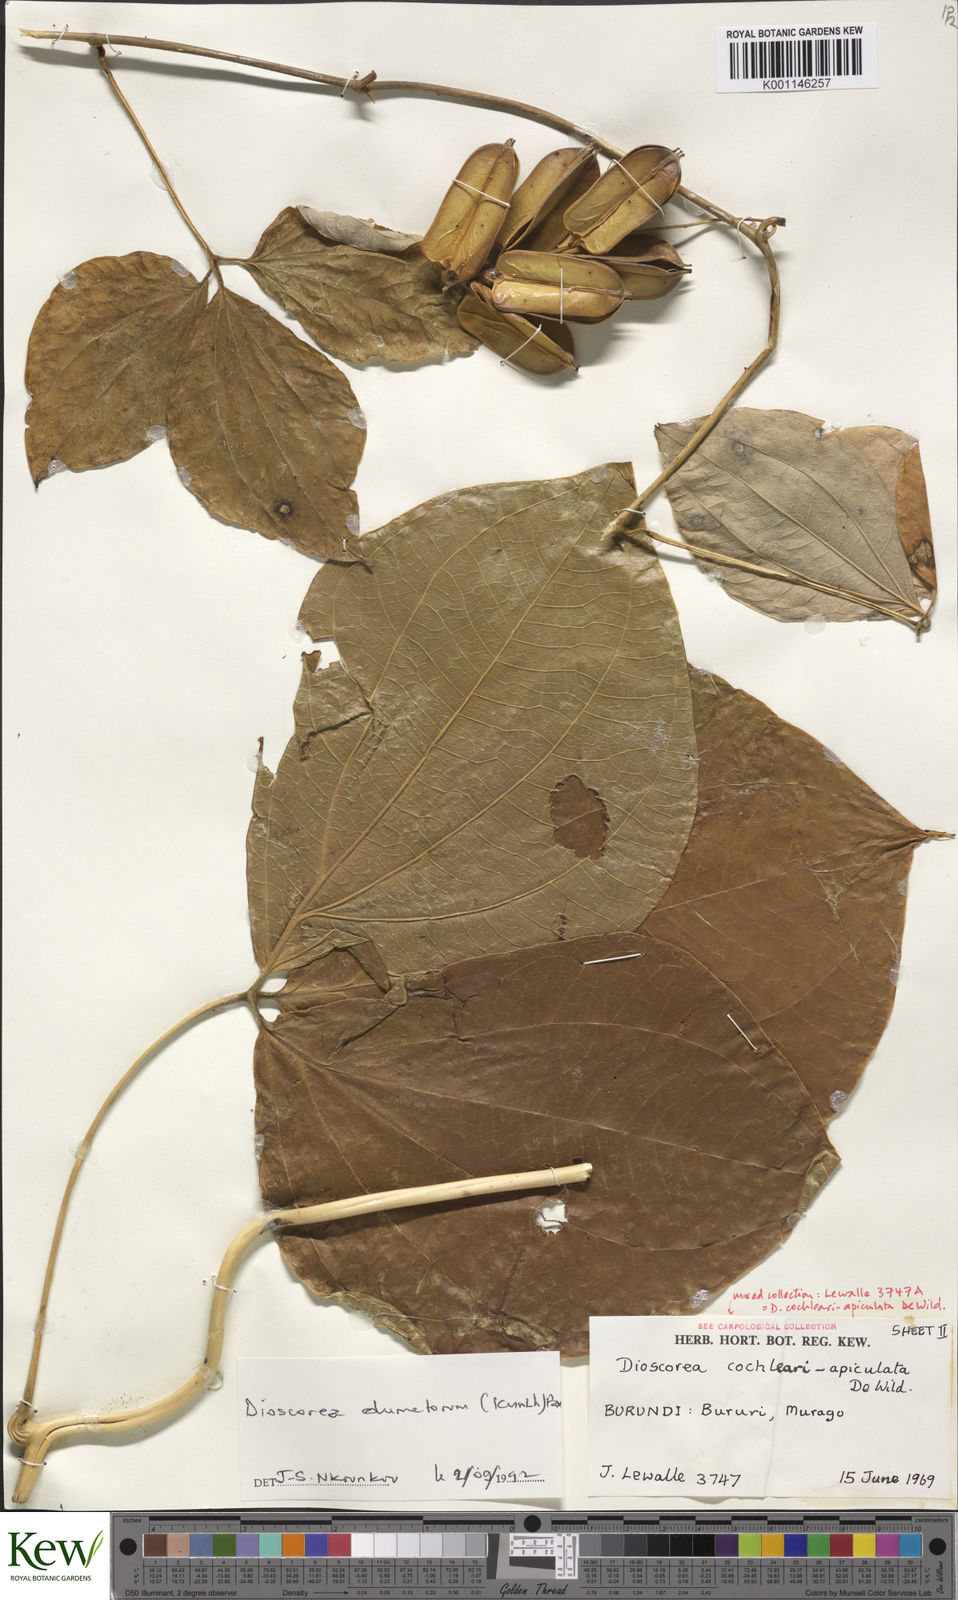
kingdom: Plantae
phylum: Tracheophyta
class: Liliopsida
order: Dioscoreales
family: Dioscoreaceae
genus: Dioscorea
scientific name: Dioscorea cochleariapiculata
